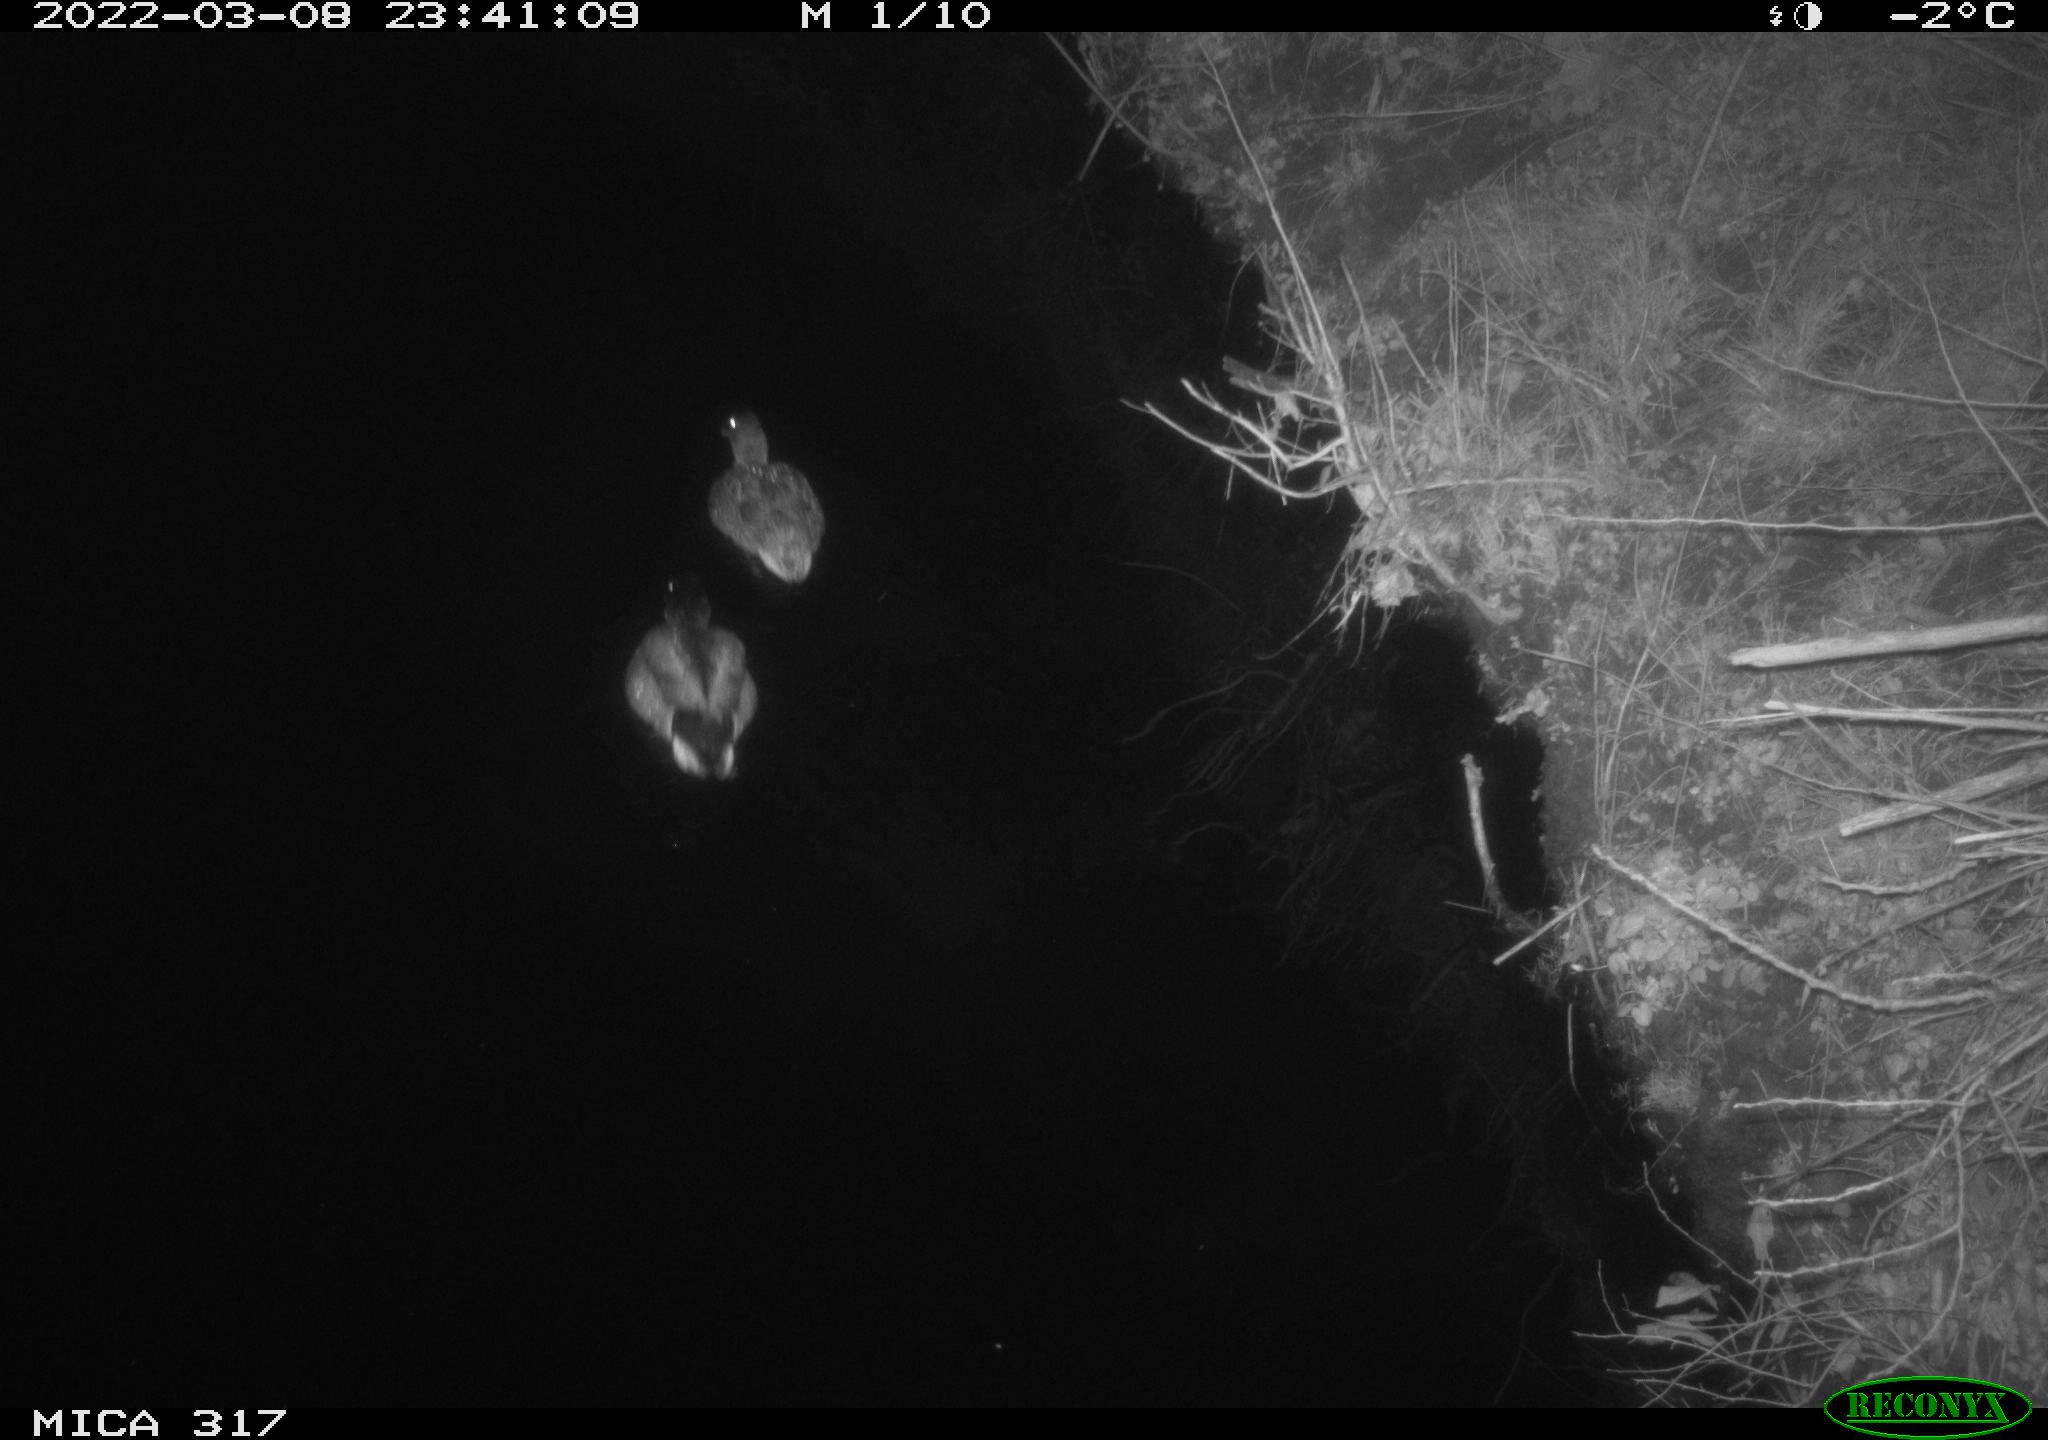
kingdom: Animalia
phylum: Chordata
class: Aves
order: Anseriformes
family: Anatidae
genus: Anas
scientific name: Anas platyrhynchos
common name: Mallard
